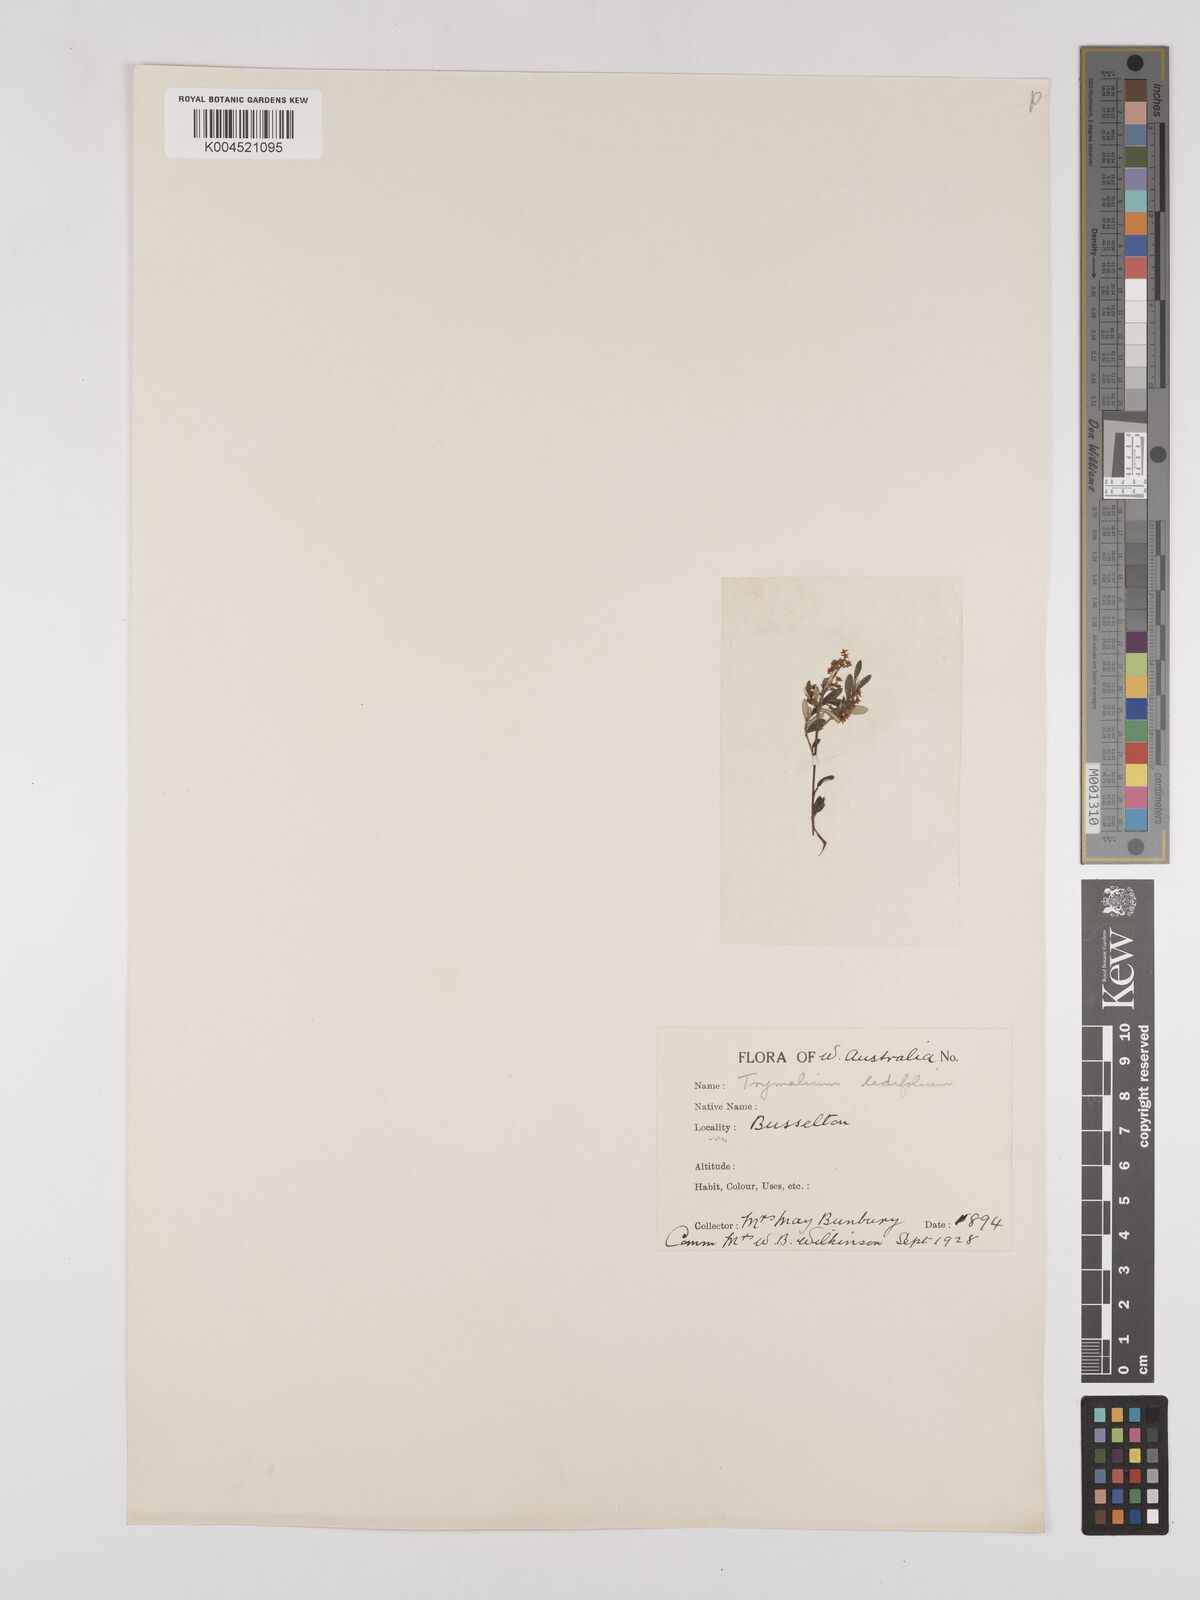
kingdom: Plantae
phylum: Tracheophyta
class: Magnoliopsida
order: Rosales
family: Rhamnaceae
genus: Trymalium
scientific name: Trymalium ledifolium
